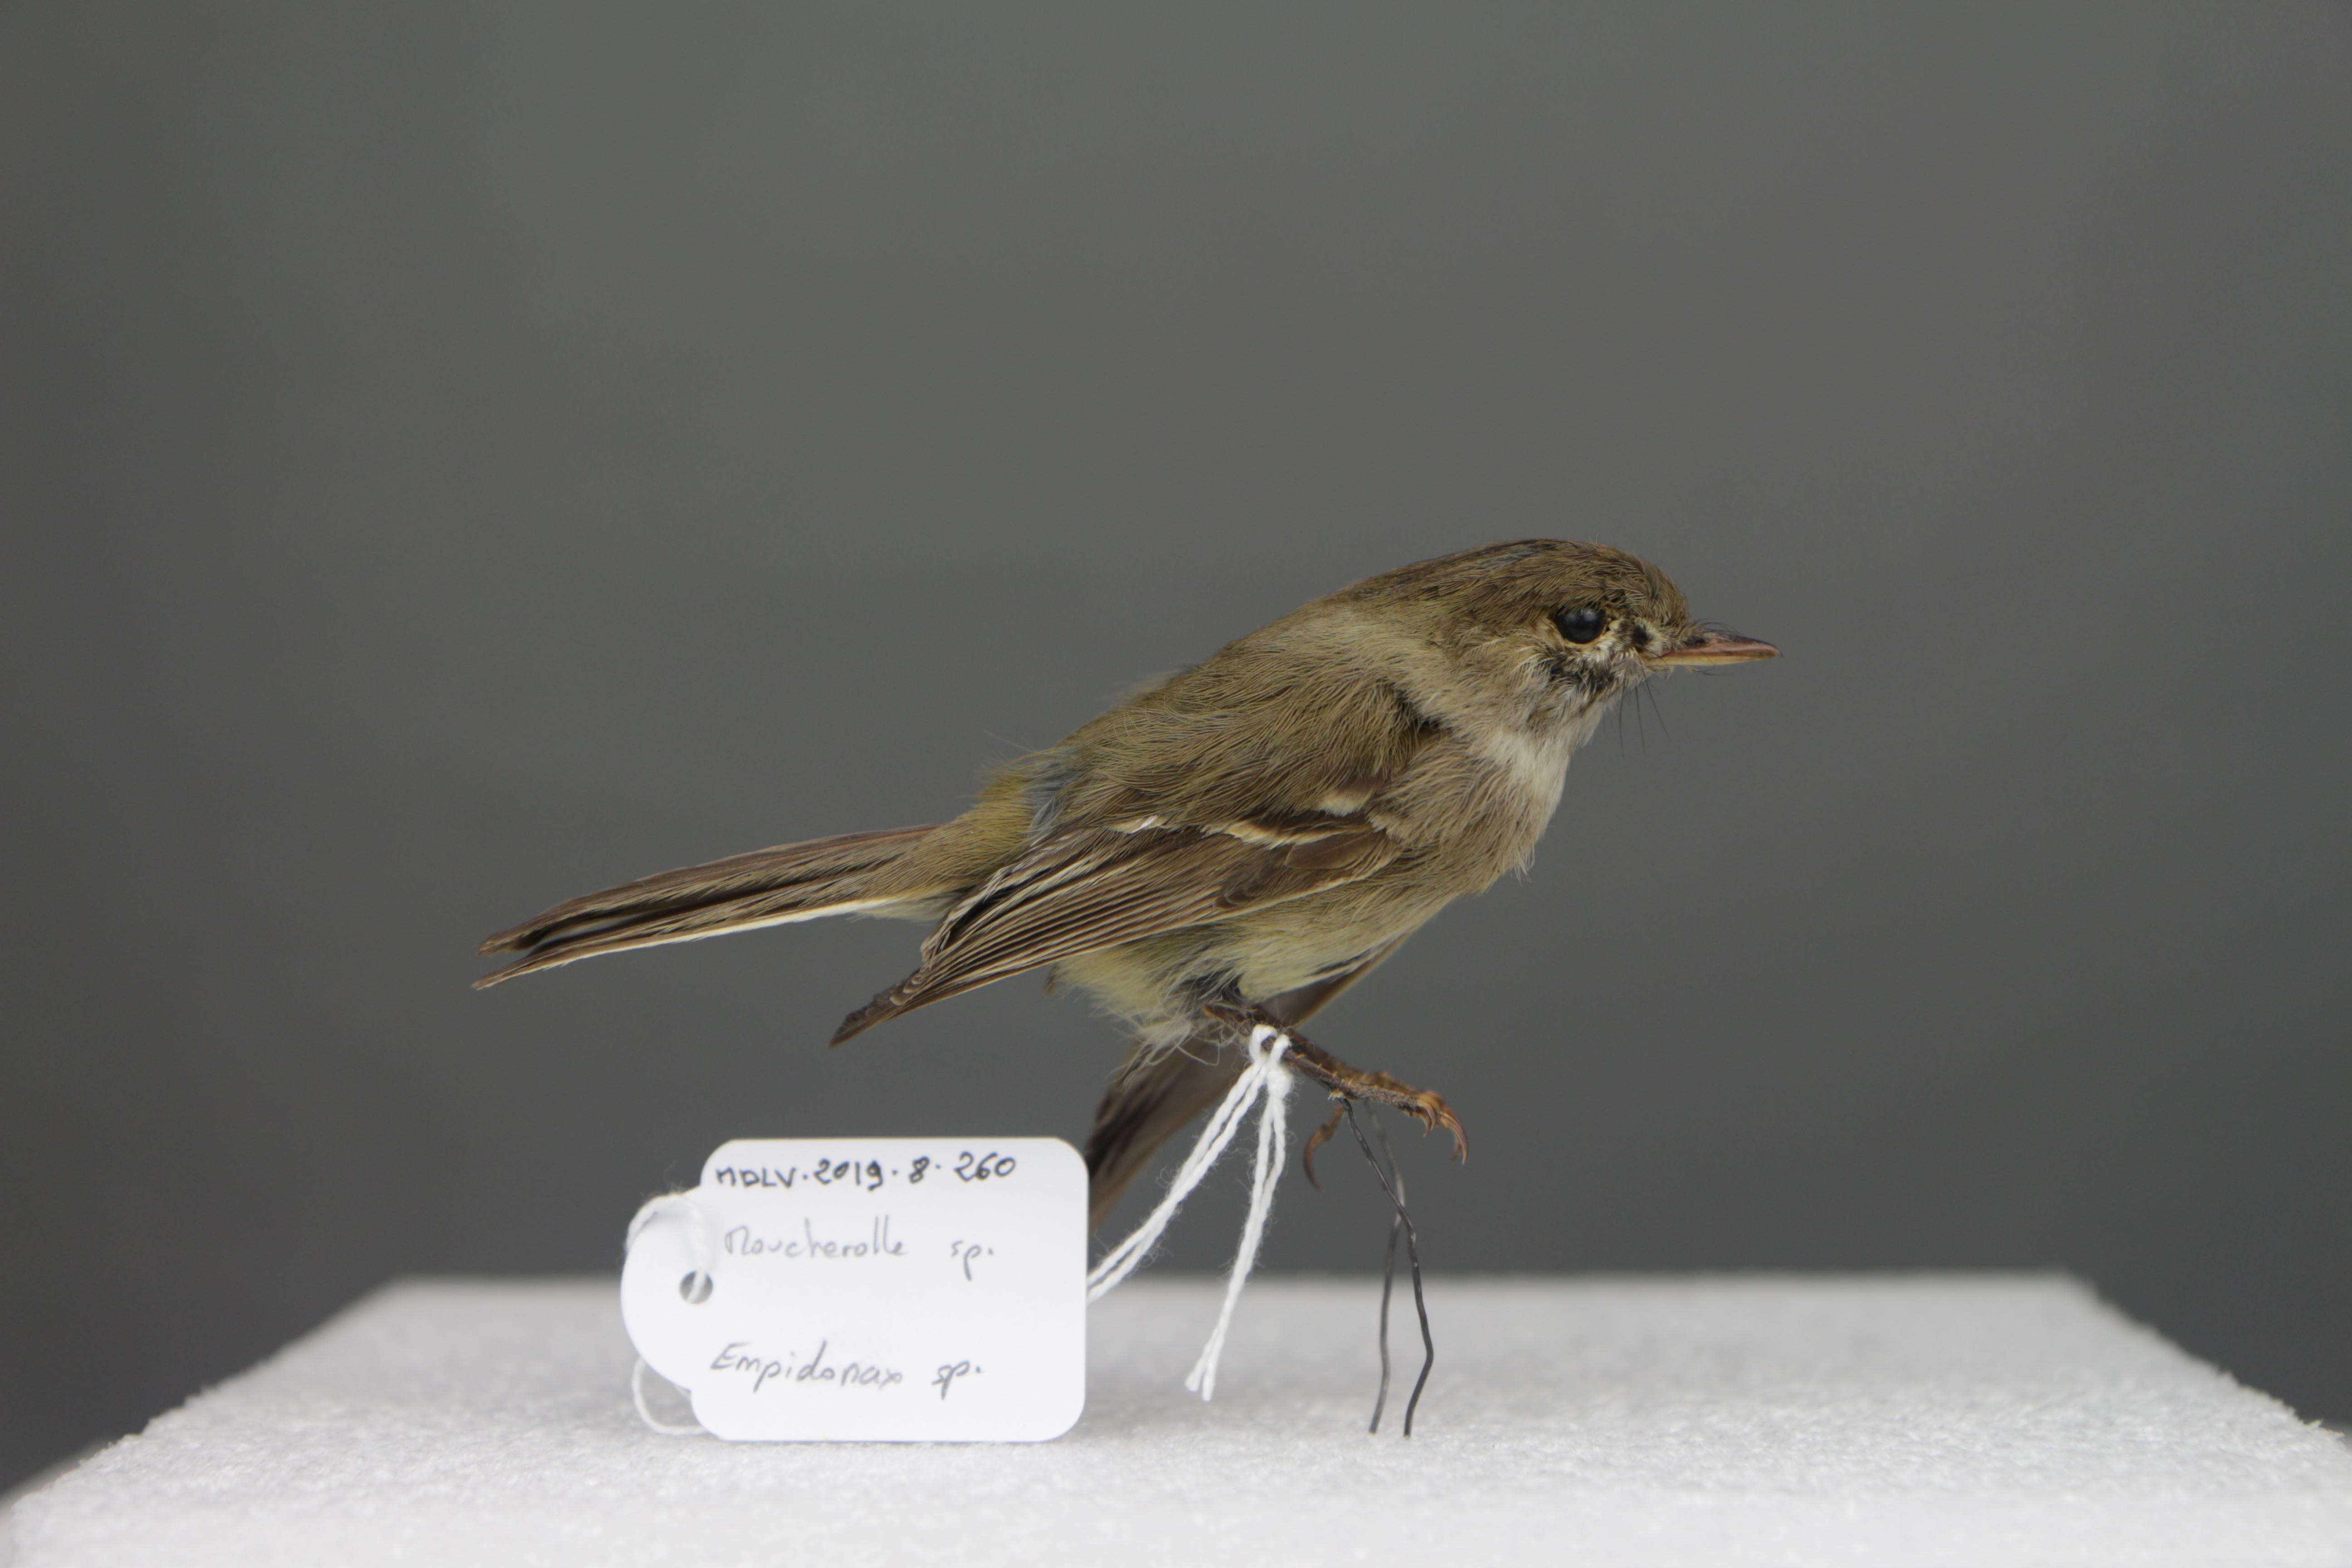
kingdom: Animalia
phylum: Chordata
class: Aves
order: Passeriformes
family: Tyrannidae
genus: Empidonax
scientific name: Empidonax
